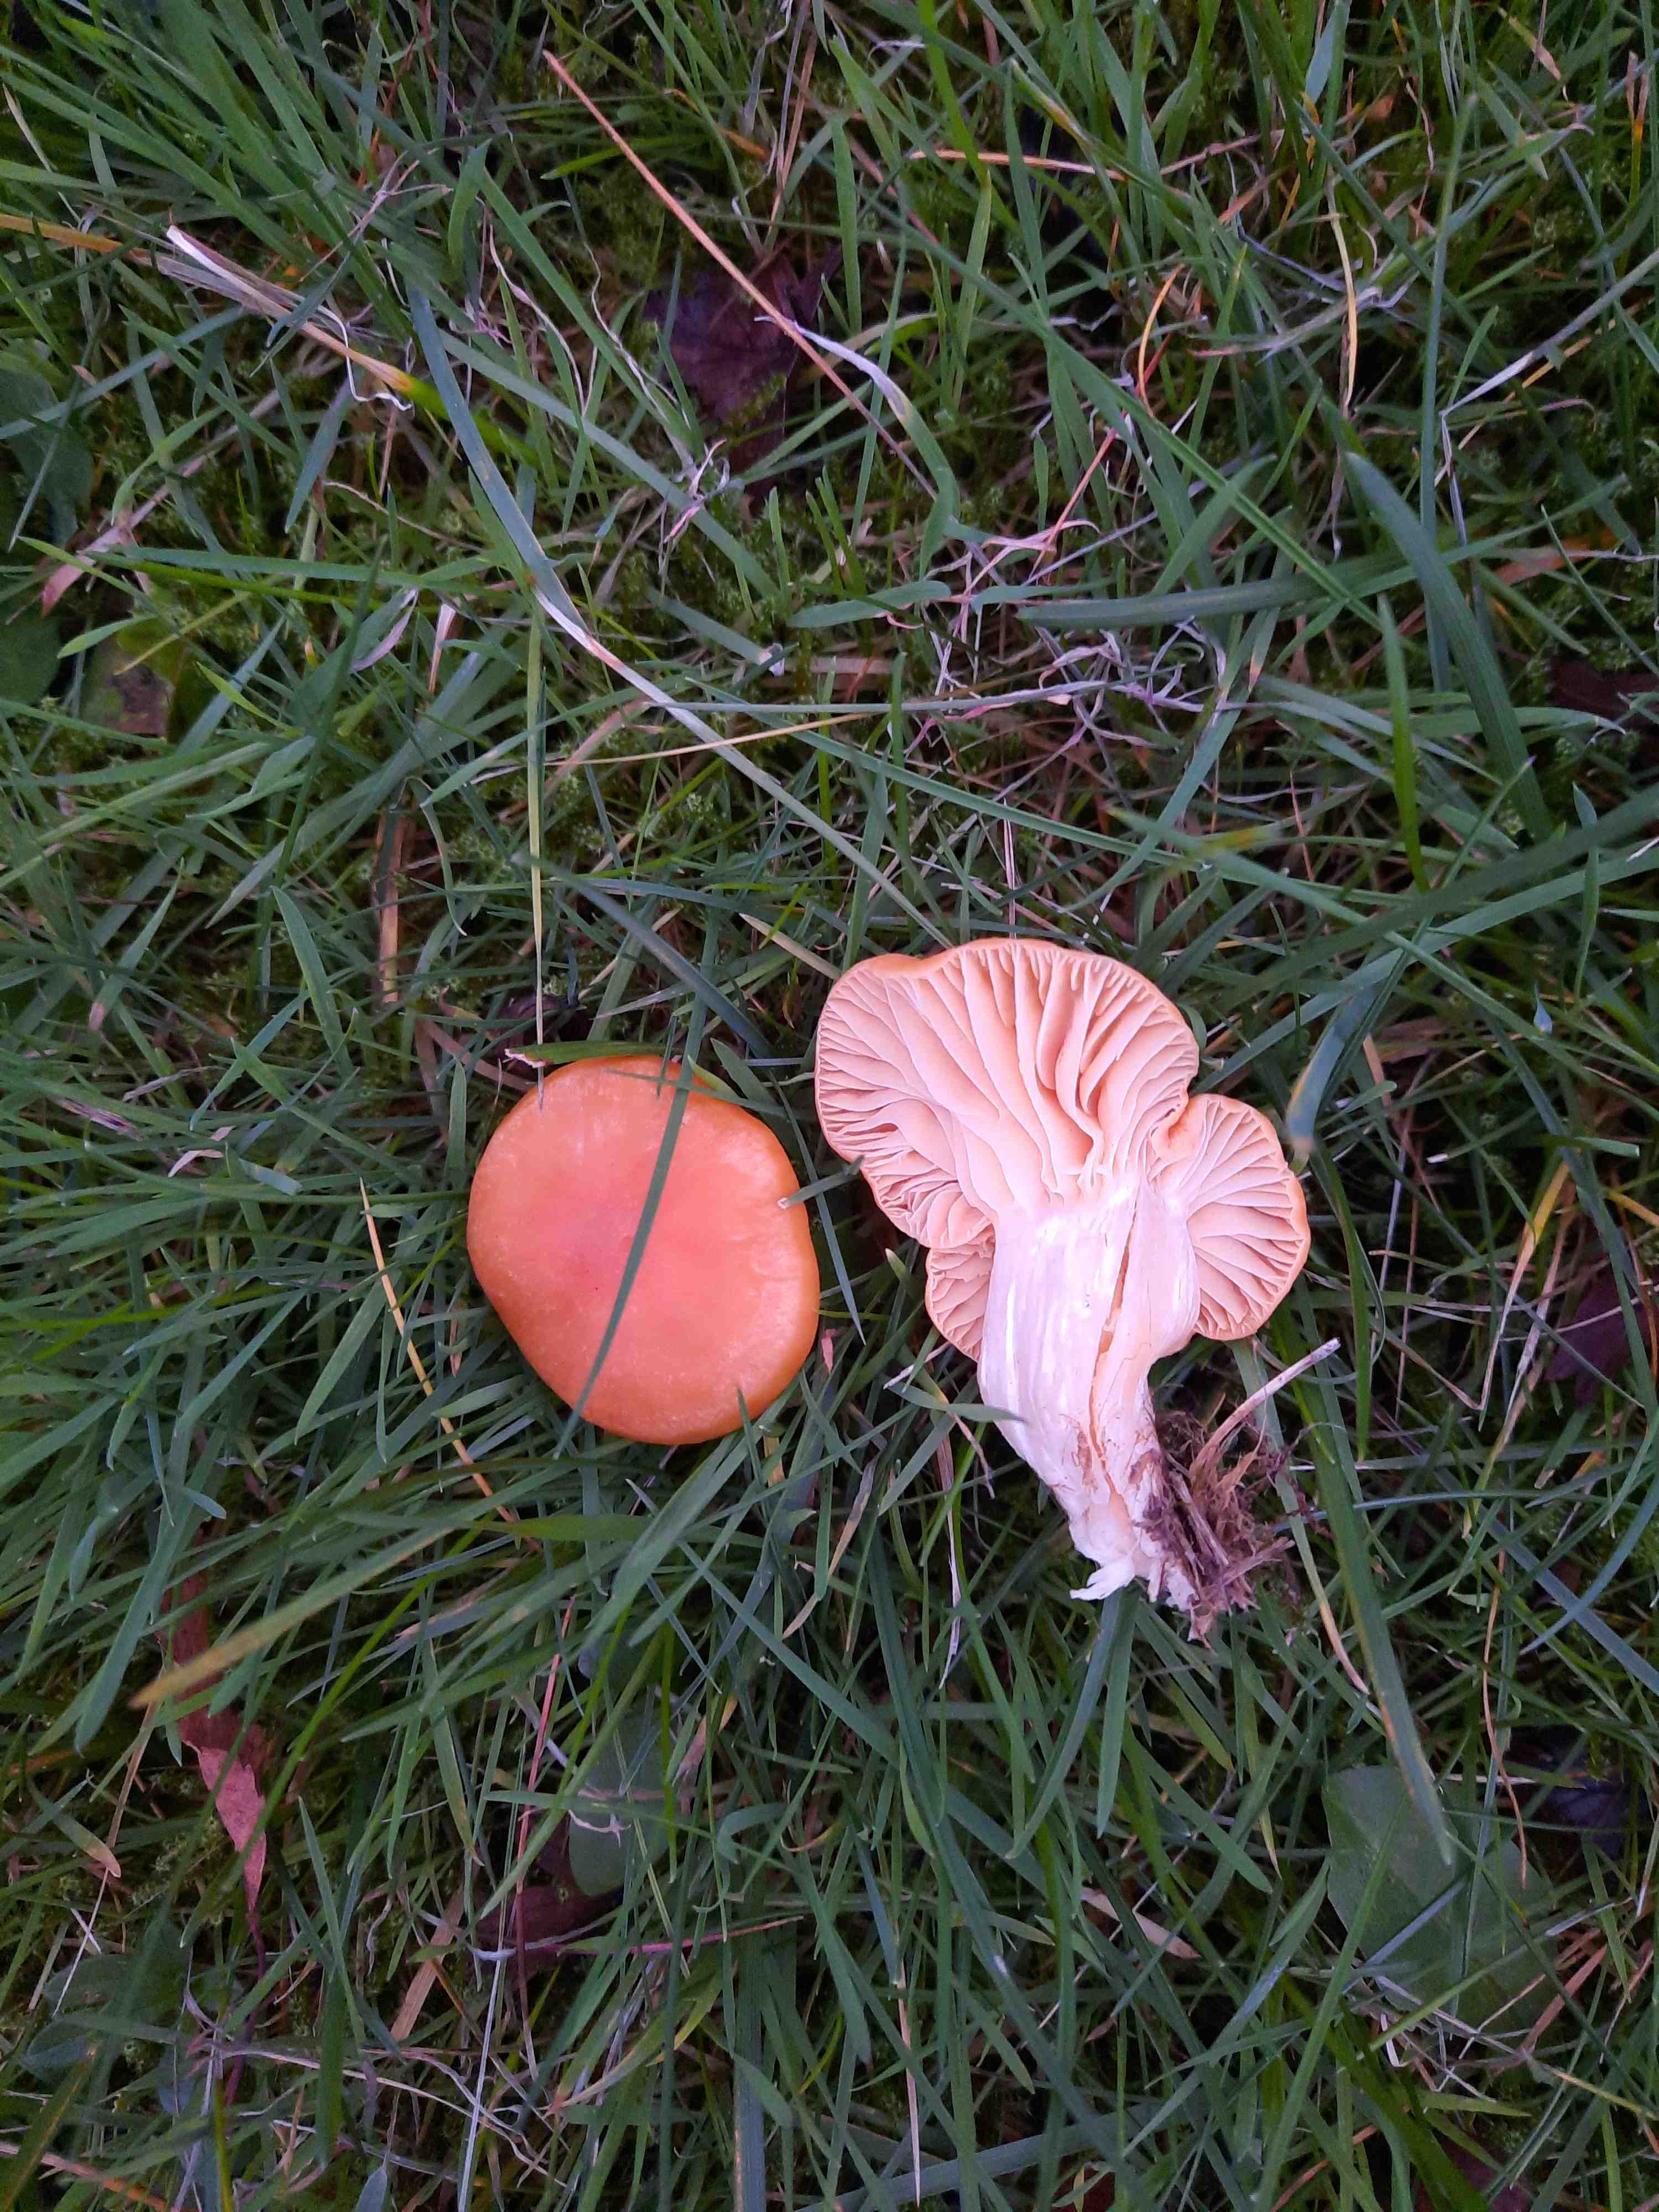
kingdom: Fungi
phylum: Basidiomycota
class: Agaricomycetes
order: Agaricales
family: Hygrophoraceae
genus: Cuphophyllus
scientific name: Cuphophyllus pratensis
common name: eng-vokshat
